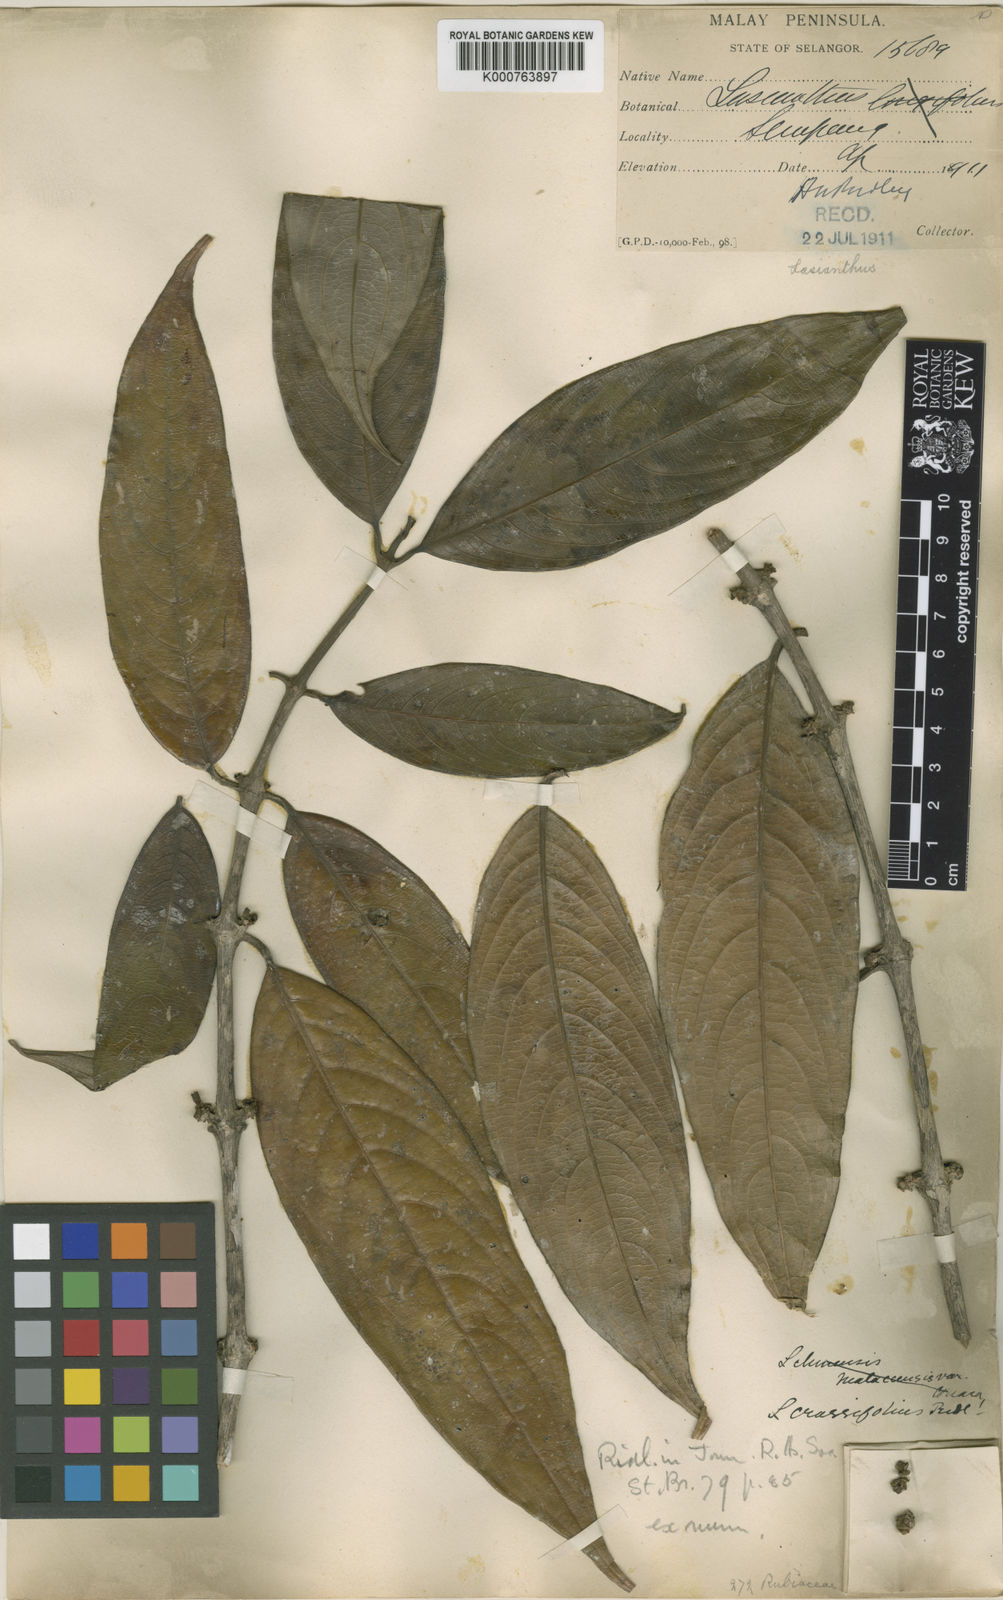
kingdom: Plantae
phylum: Tracheophyta
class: Magnoliopsida
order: Gentianales
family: Rubiaceae
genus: Lasianthus
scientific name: Lasianthus pergamaceus
